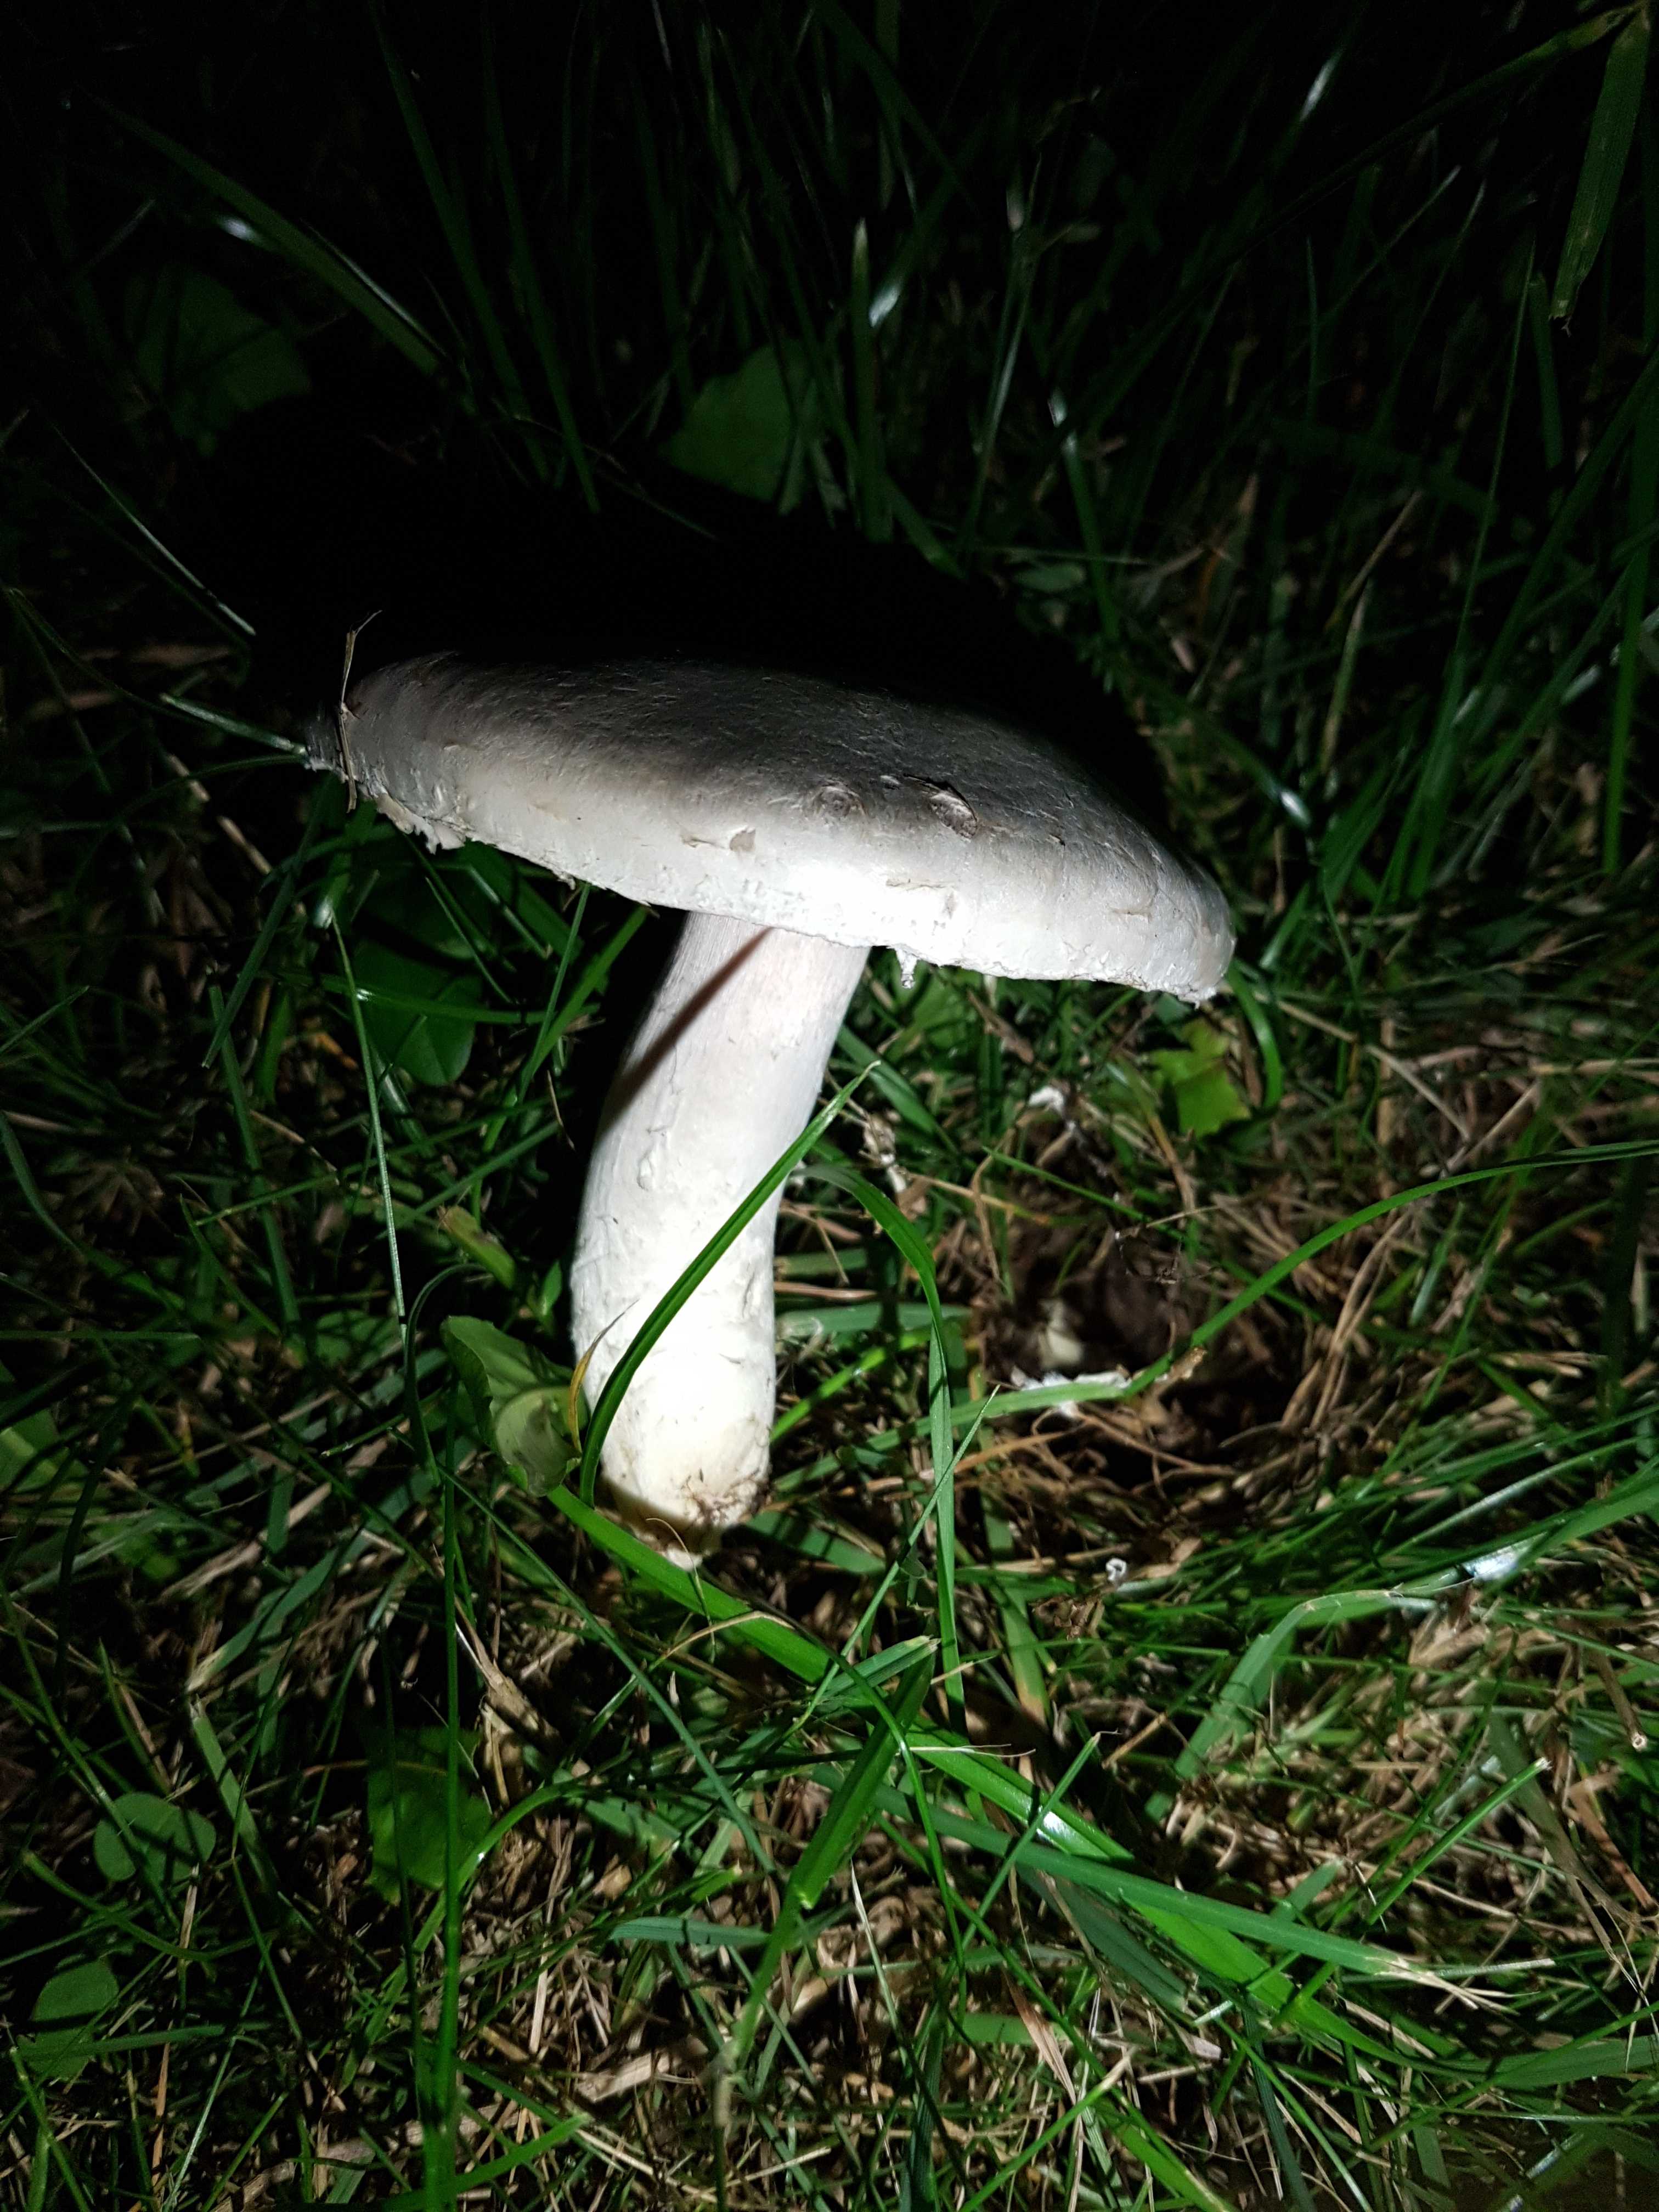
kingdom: Fungi
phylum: Basidiomycota
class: Agaricomycetes
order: Agaricales
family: Agaricaceae
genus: Agaricus
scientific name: Agaricus campestris
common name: mark-champignon
